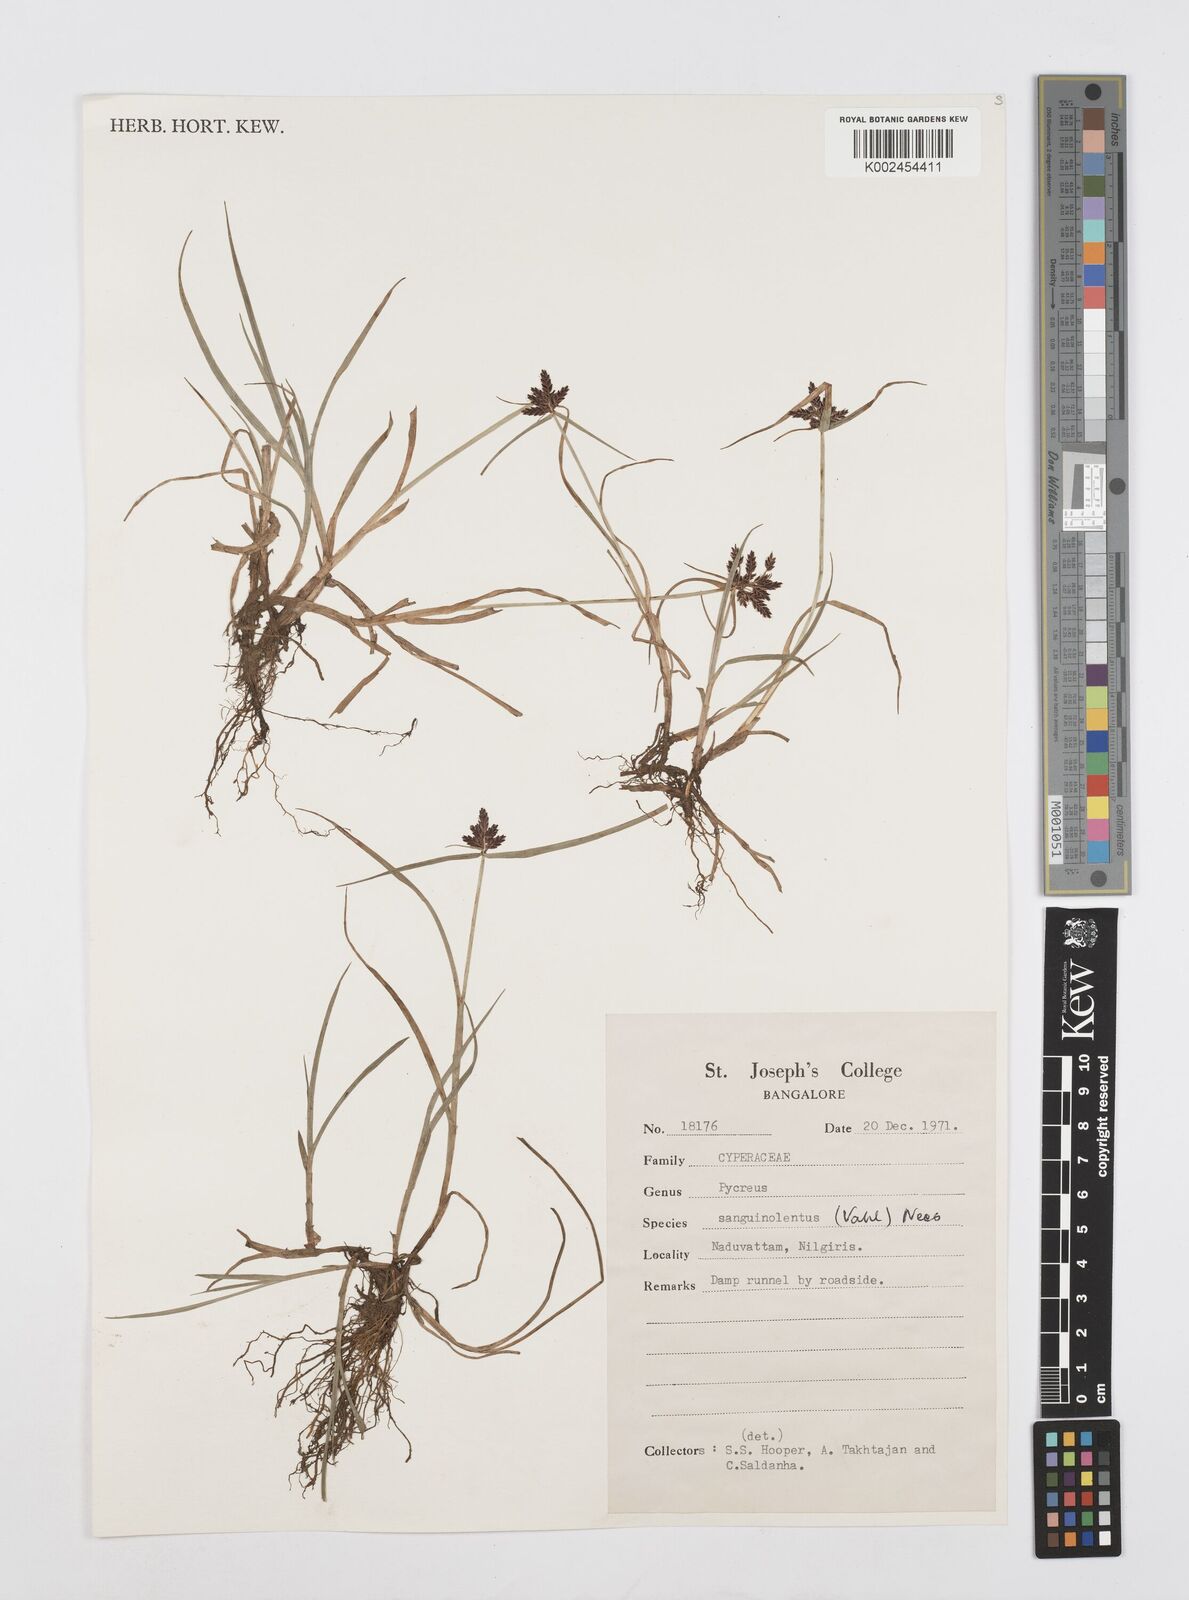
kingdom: Plantae
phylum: Tracheophyta
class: Liliopsida
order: Poales
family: Cyperaceae
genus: Cyperus
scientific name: Cyperus sanguinolentus
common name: Purpleglume flatsedge
